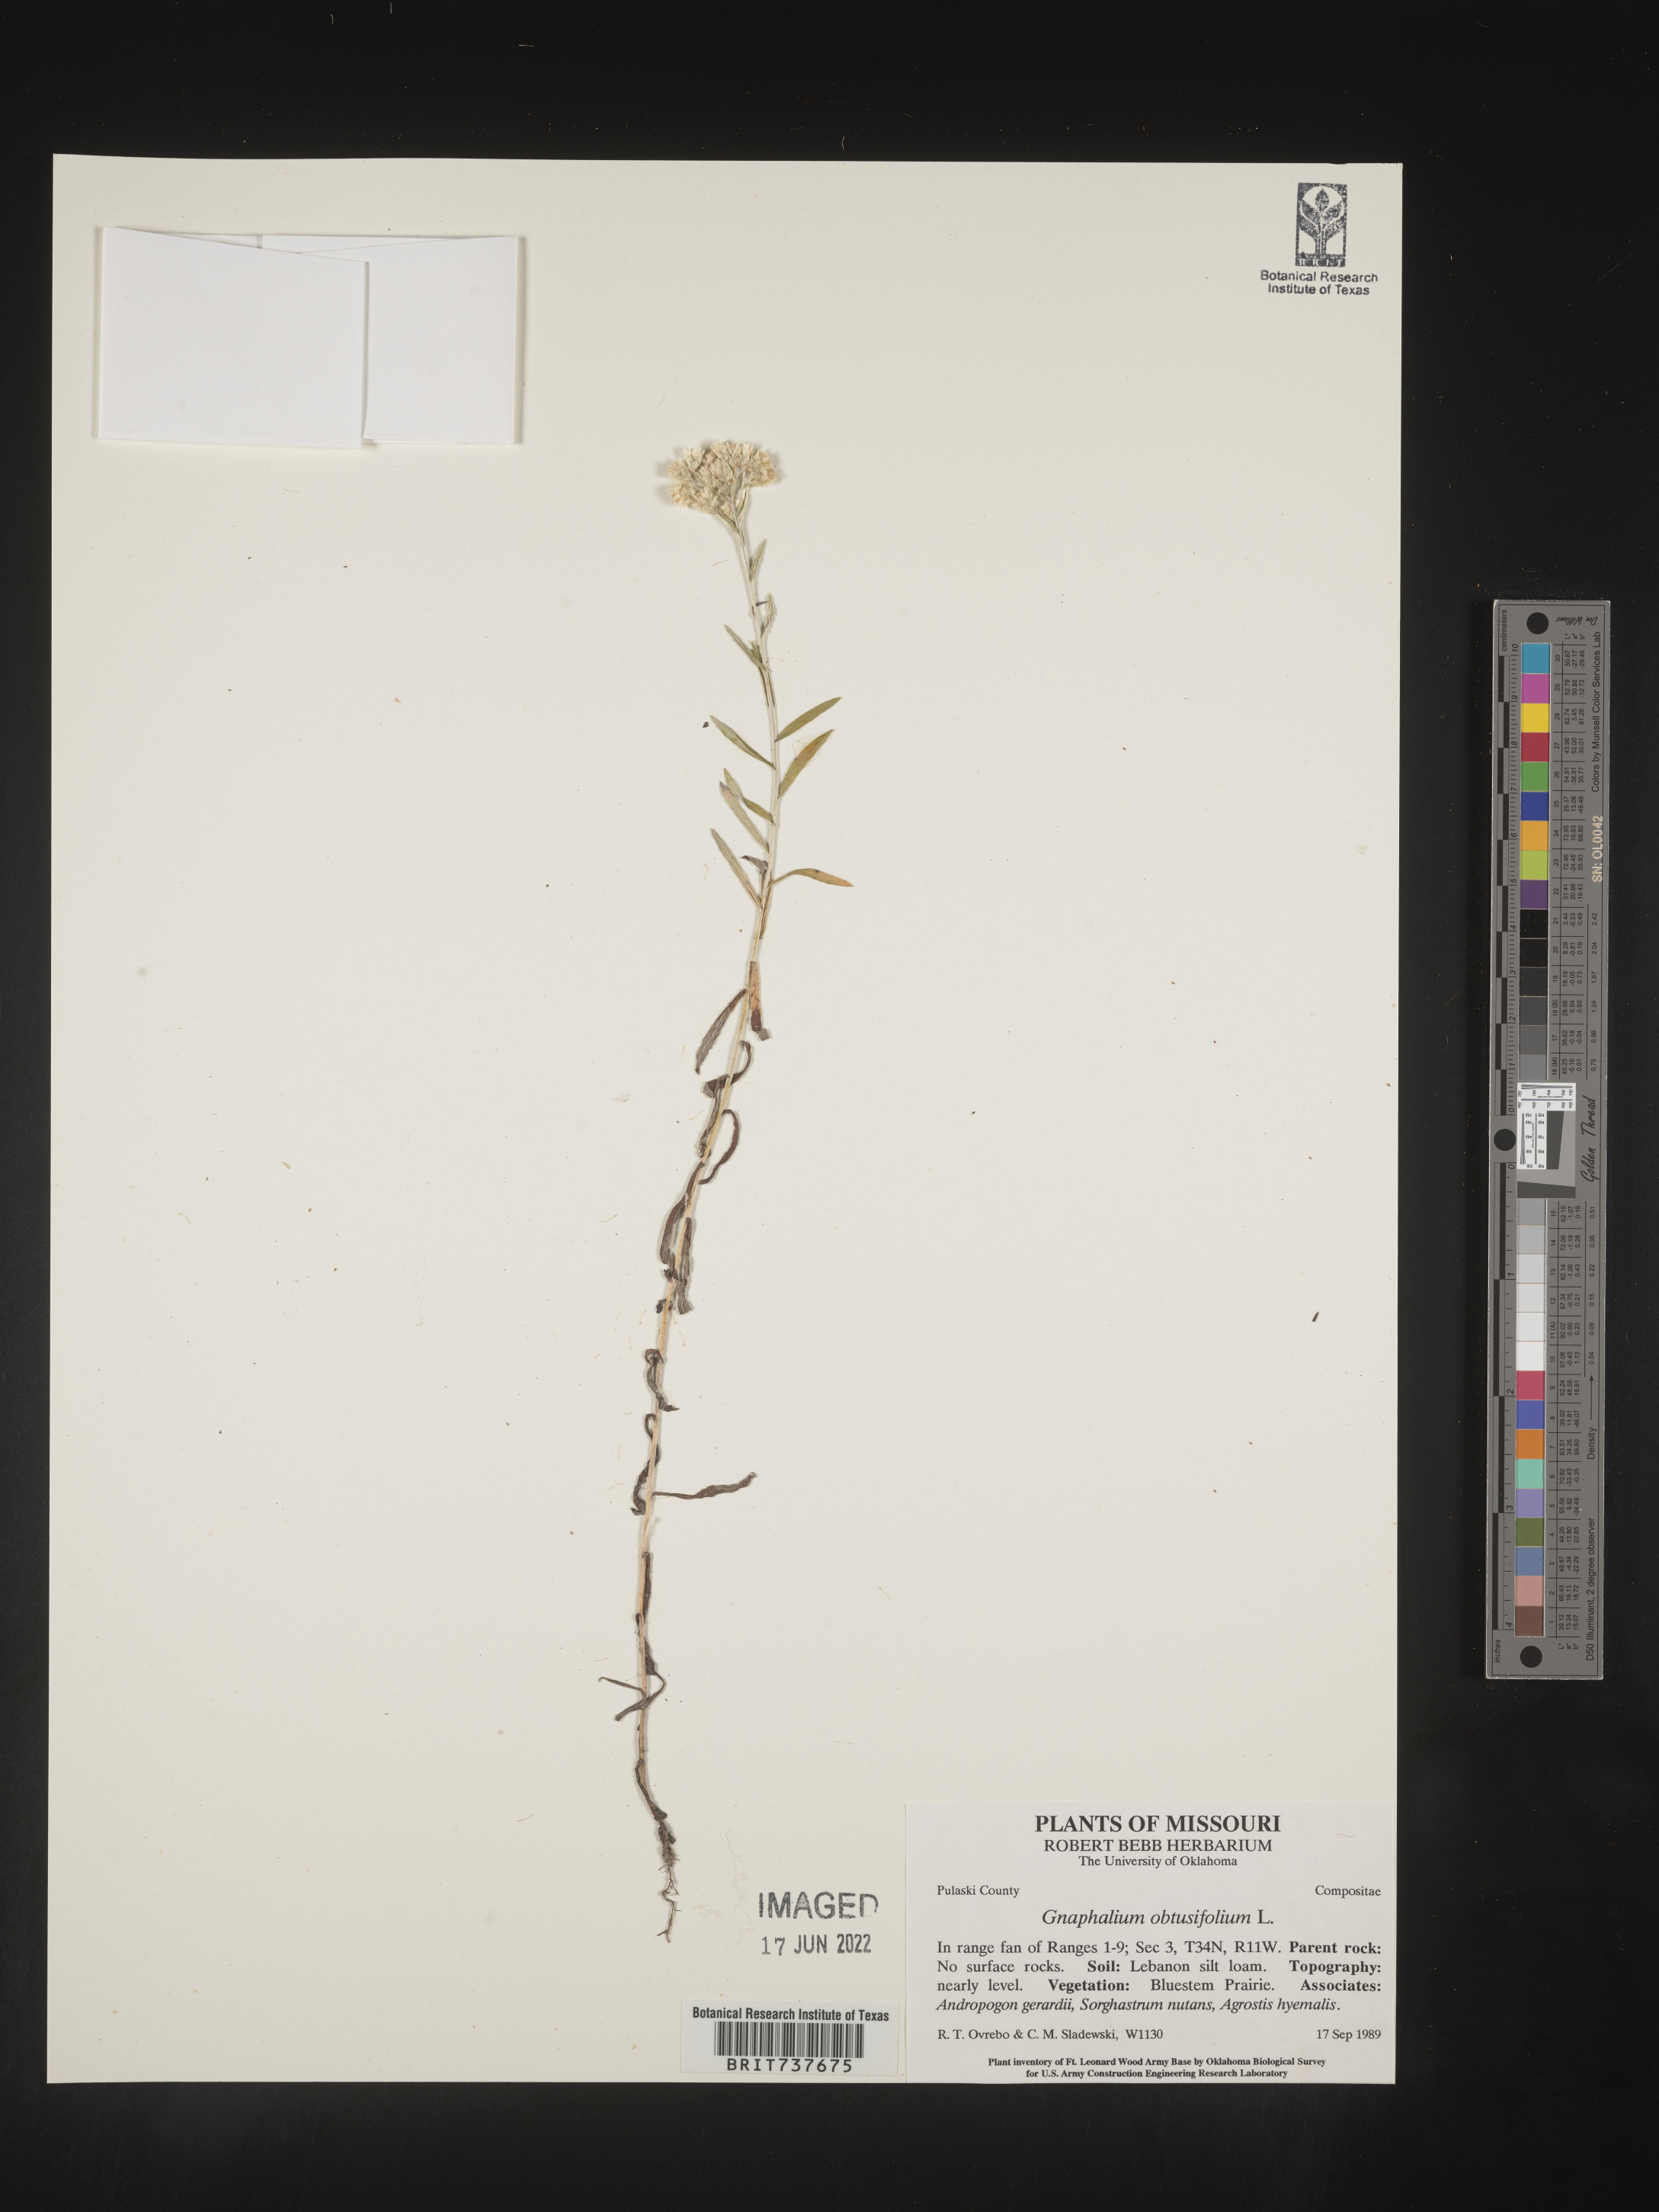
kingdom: Plantae
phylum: Tracheophyta
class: Magnoliopsida
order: Asterales
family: Asteraceae
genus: Pseudognaphalium
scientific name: Pseudognaphalium obtusifolium
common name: Eastern rabbit-tobacco
